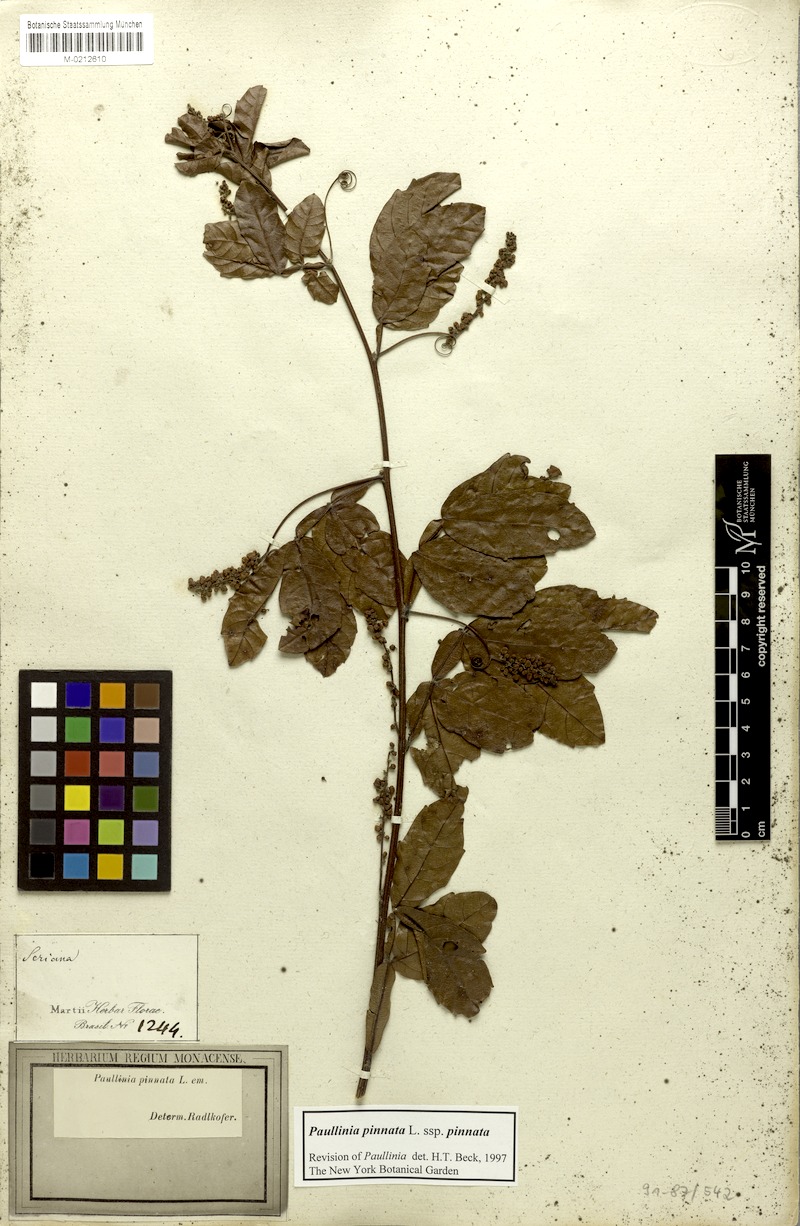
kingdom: Plantae
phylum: Tracheophyta
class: Magnoliopsida
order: Sapindales
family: Sapindaceae
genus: Paullinia
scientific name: Paullinia pinnata
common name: Barbasco
